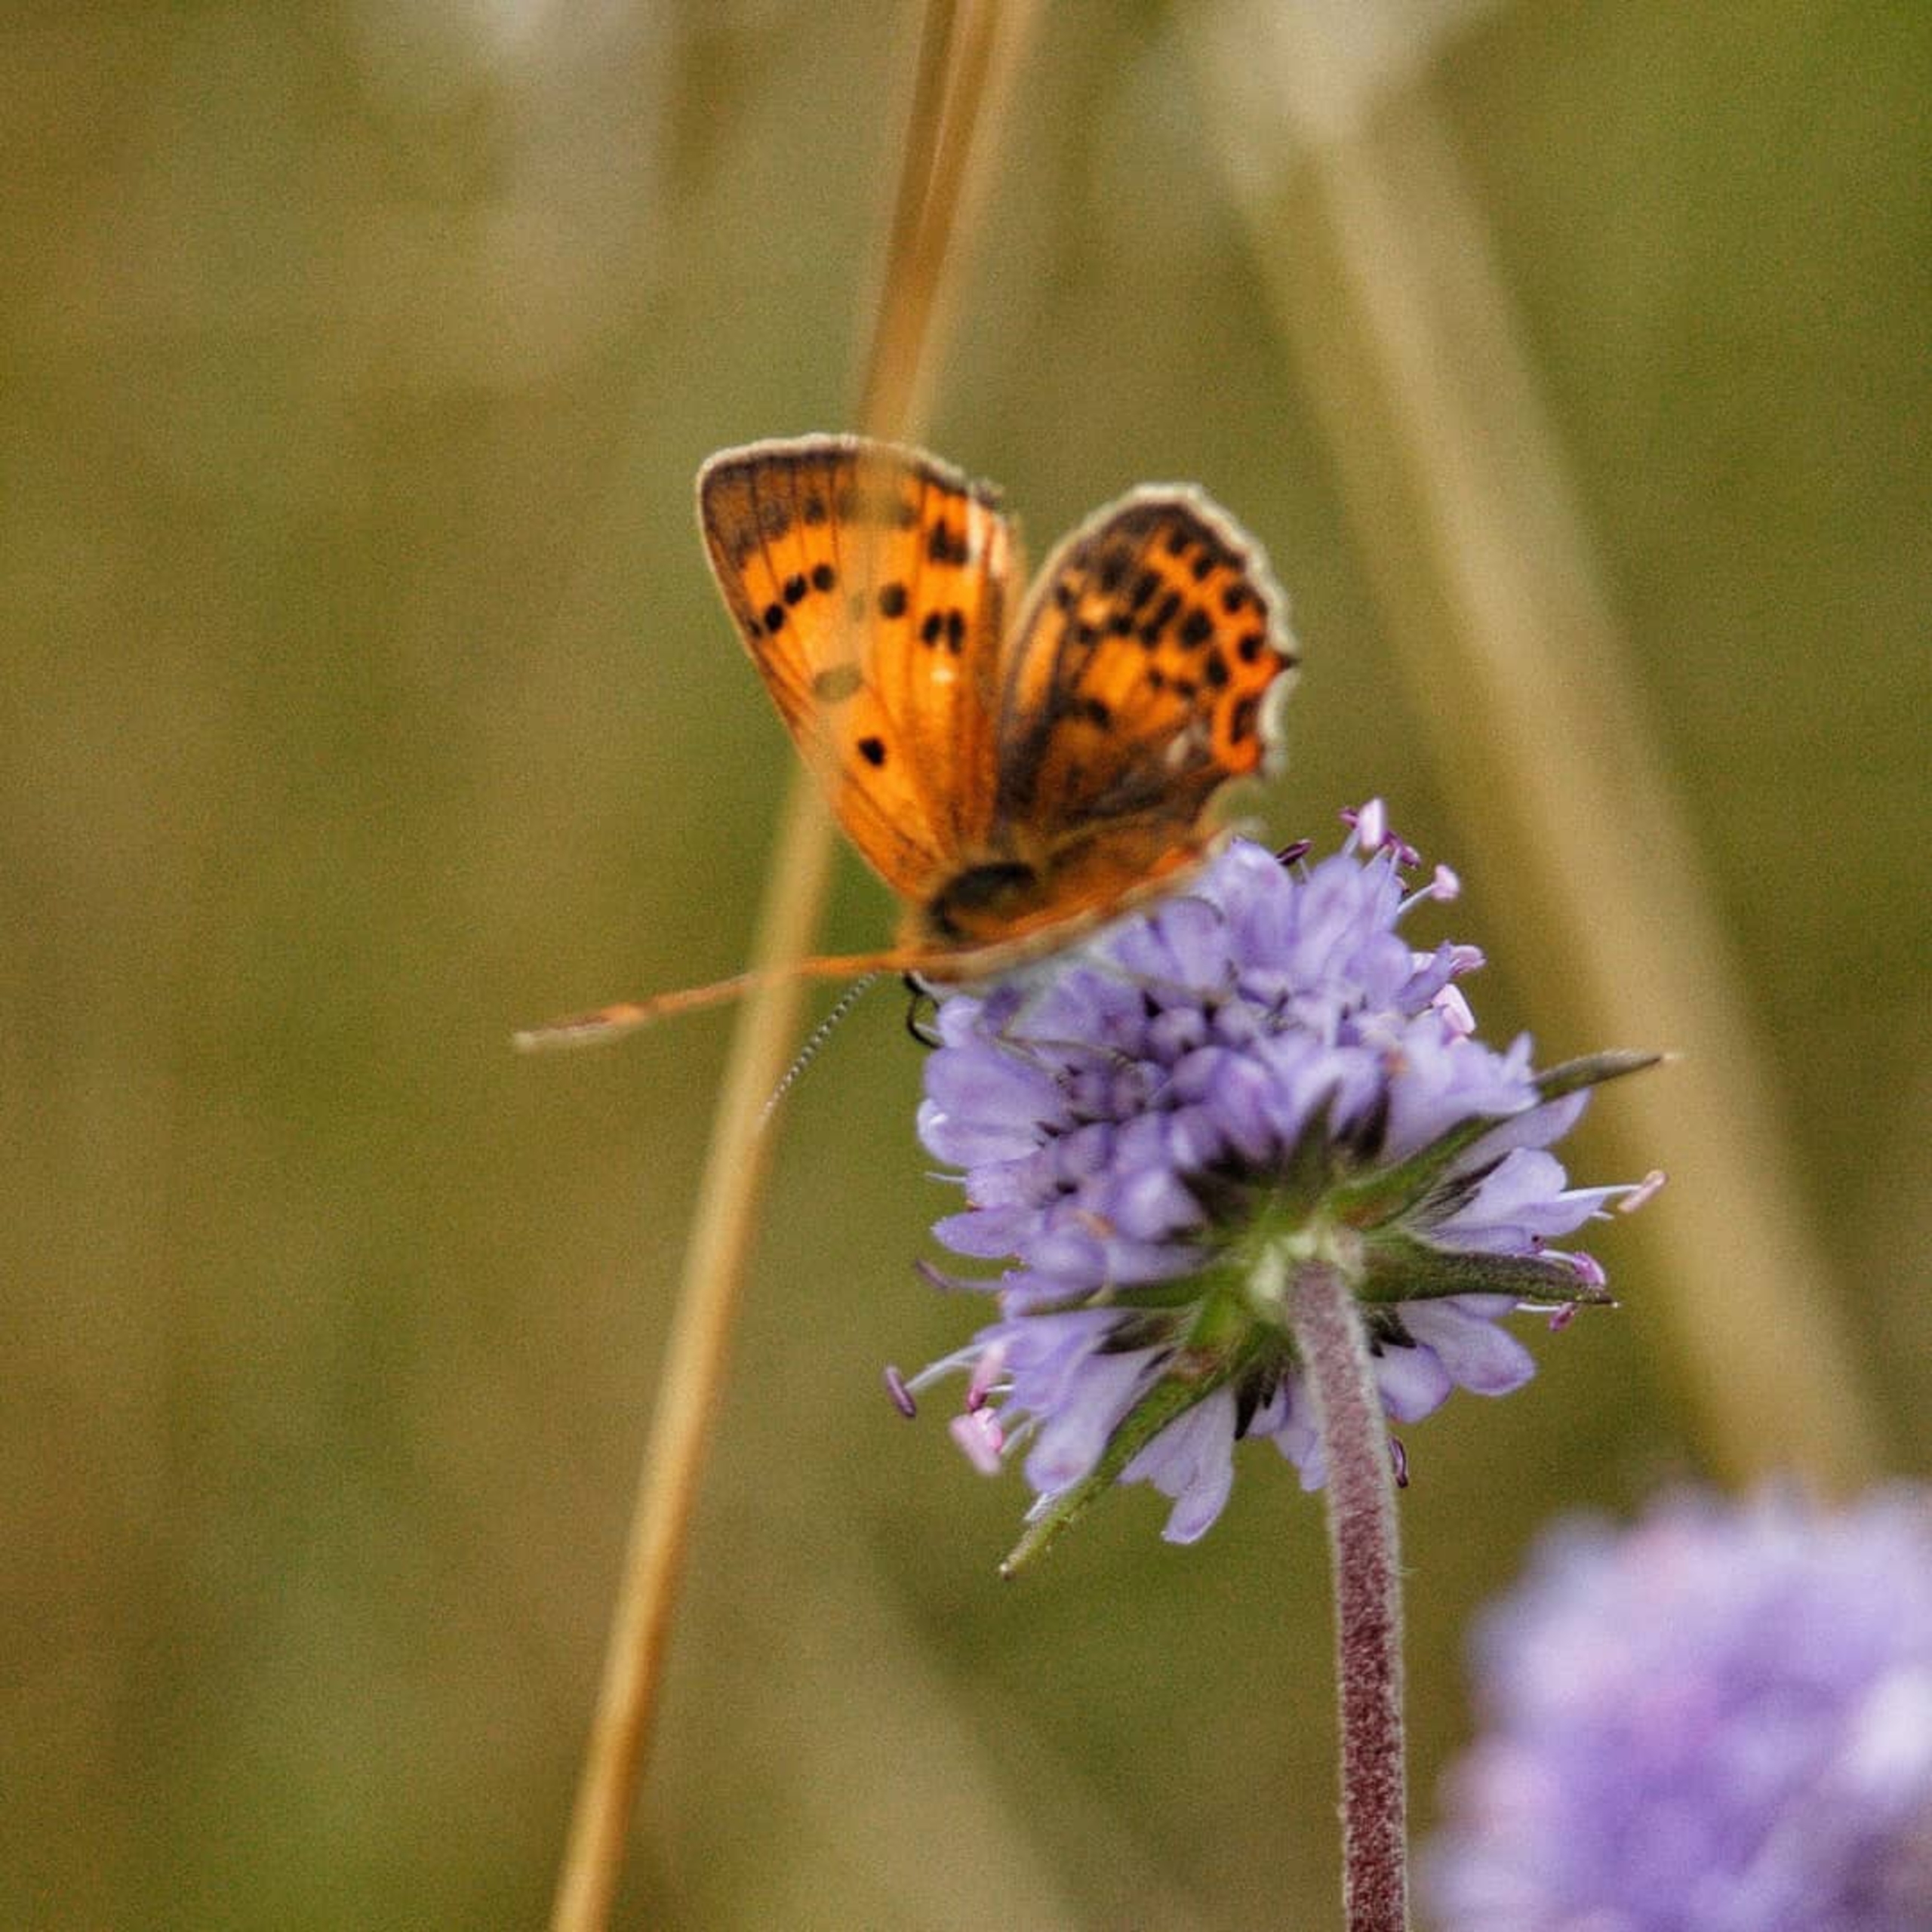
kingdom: Animalia
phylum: Arthropoda
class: Insecta
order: Lepidoptera
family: Lycaenidae
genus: Lycaena
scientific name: Lycaena virgaureae
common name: Dukatsommerfugl
